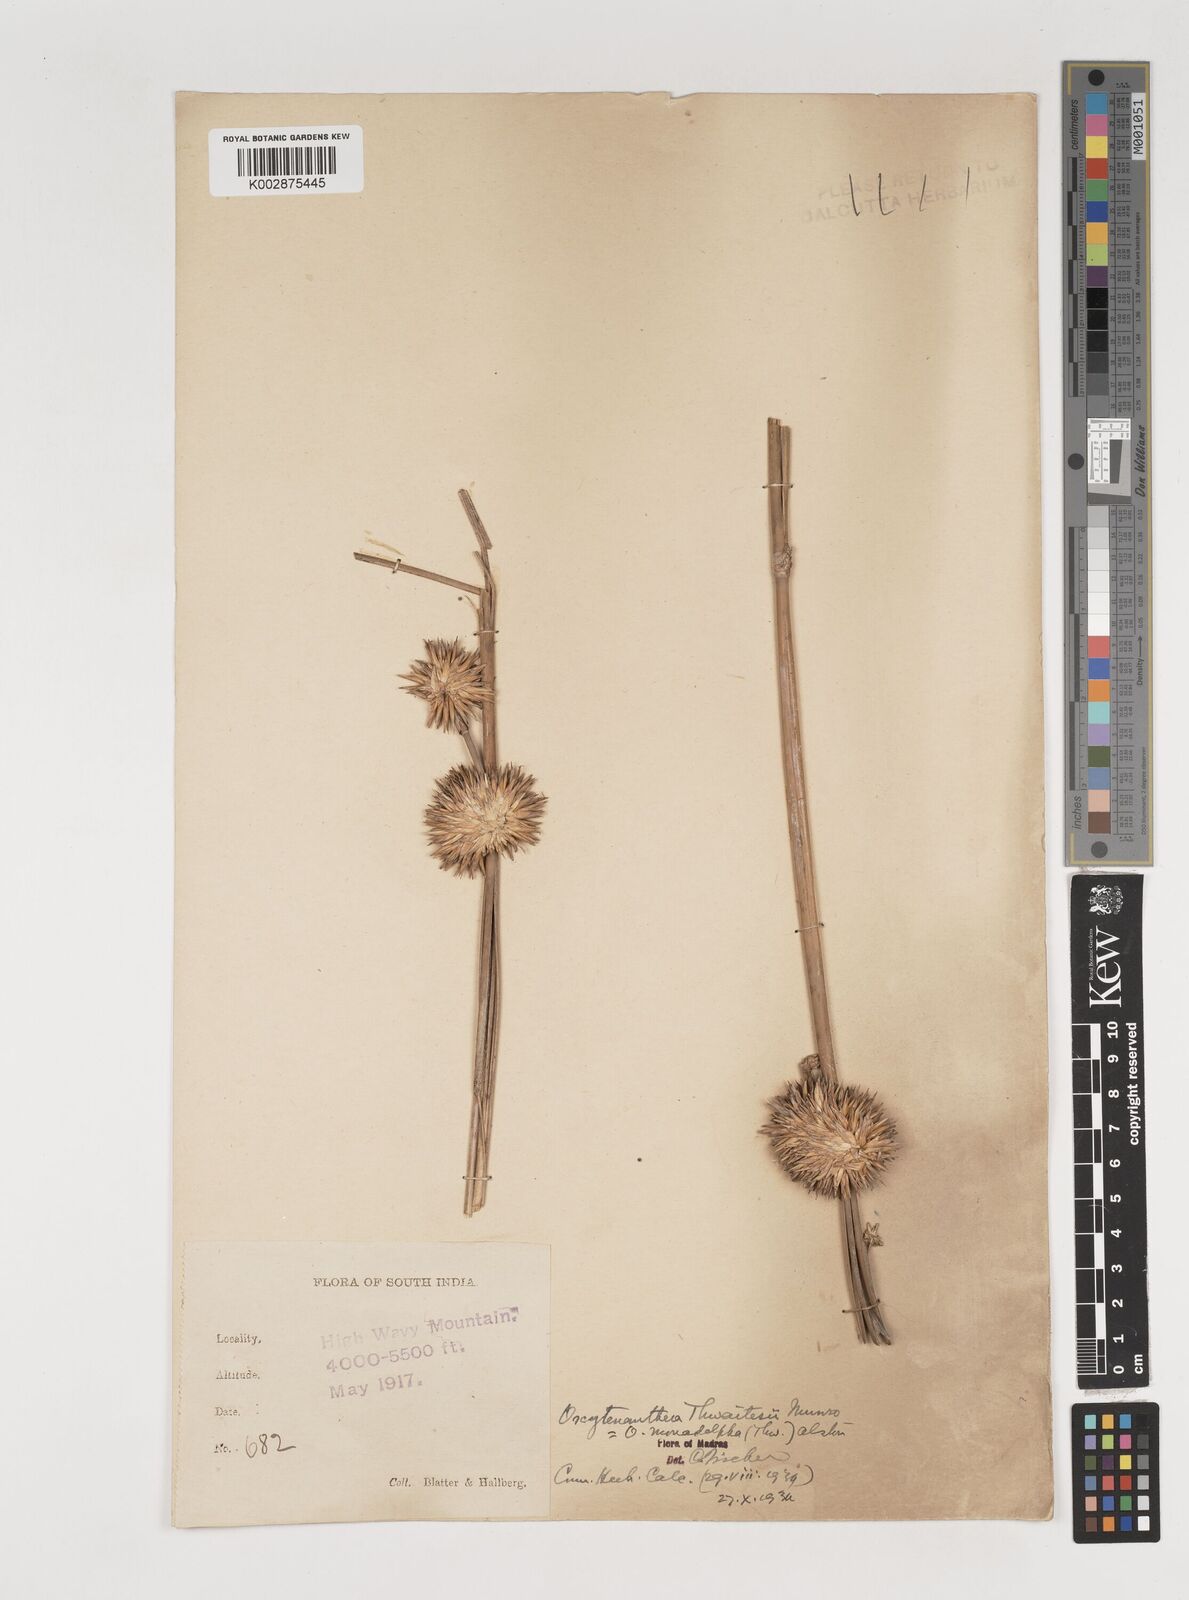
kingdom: Plantae
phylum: Tracheophyta
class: Liliopsida
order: Poales
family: Poaceae
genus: Pseudoxytenanthera
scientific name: Pseudoxytenanthera monadelpha
